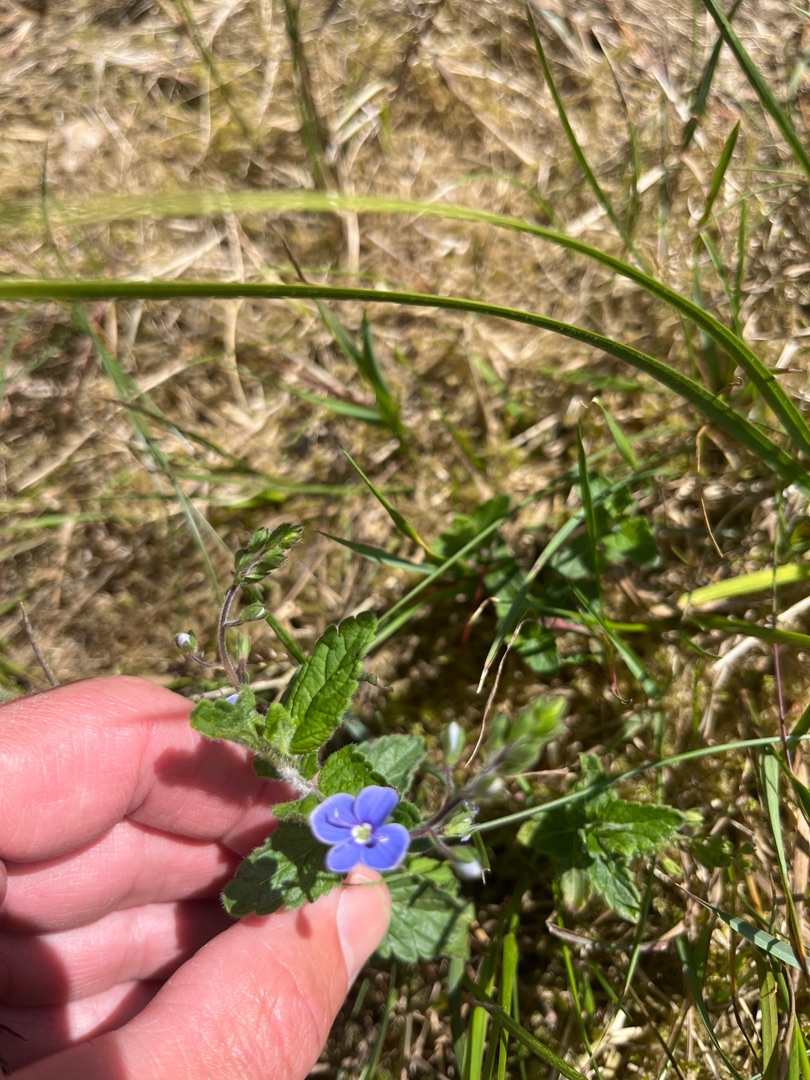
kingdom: Plantae
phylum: Tracheophyta
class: Magnoliopsida
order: Lamiales
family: Plantaginaceae
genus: Veronica
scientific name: Veronica chamaedrys
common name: Tveskægget ærenpris
